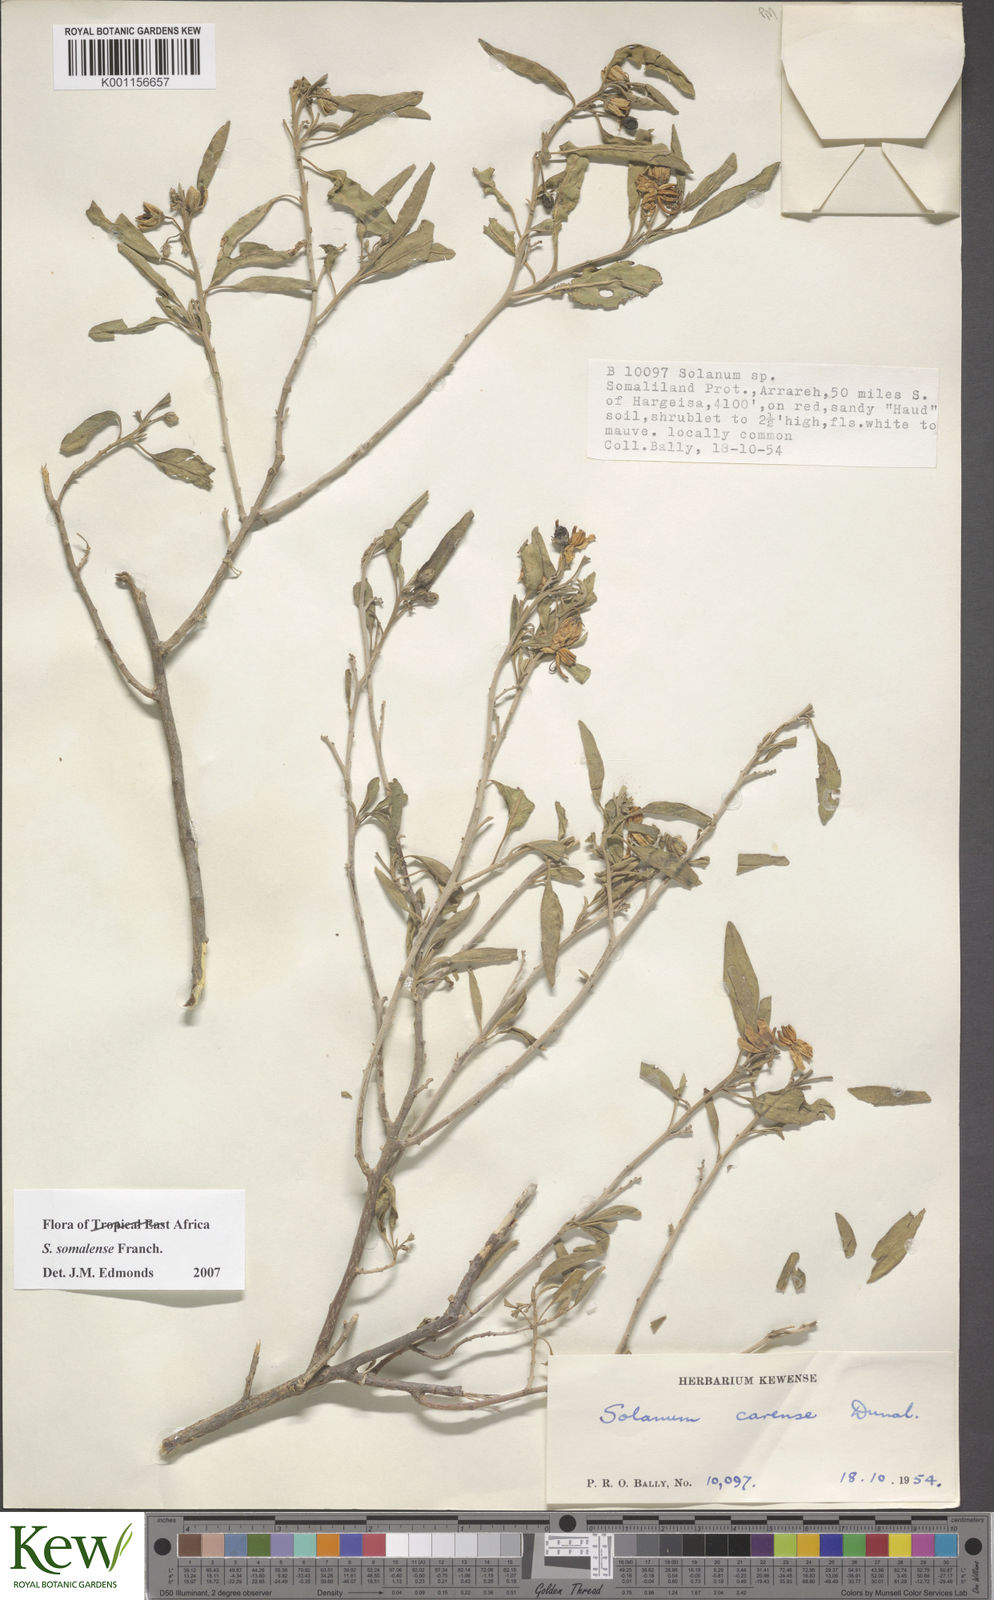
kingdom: Plantae
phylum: Tracheophyta
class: Magnoliopsida
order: Solanales
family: Solanaceae
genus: Solanum
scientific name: Solanum somalense
